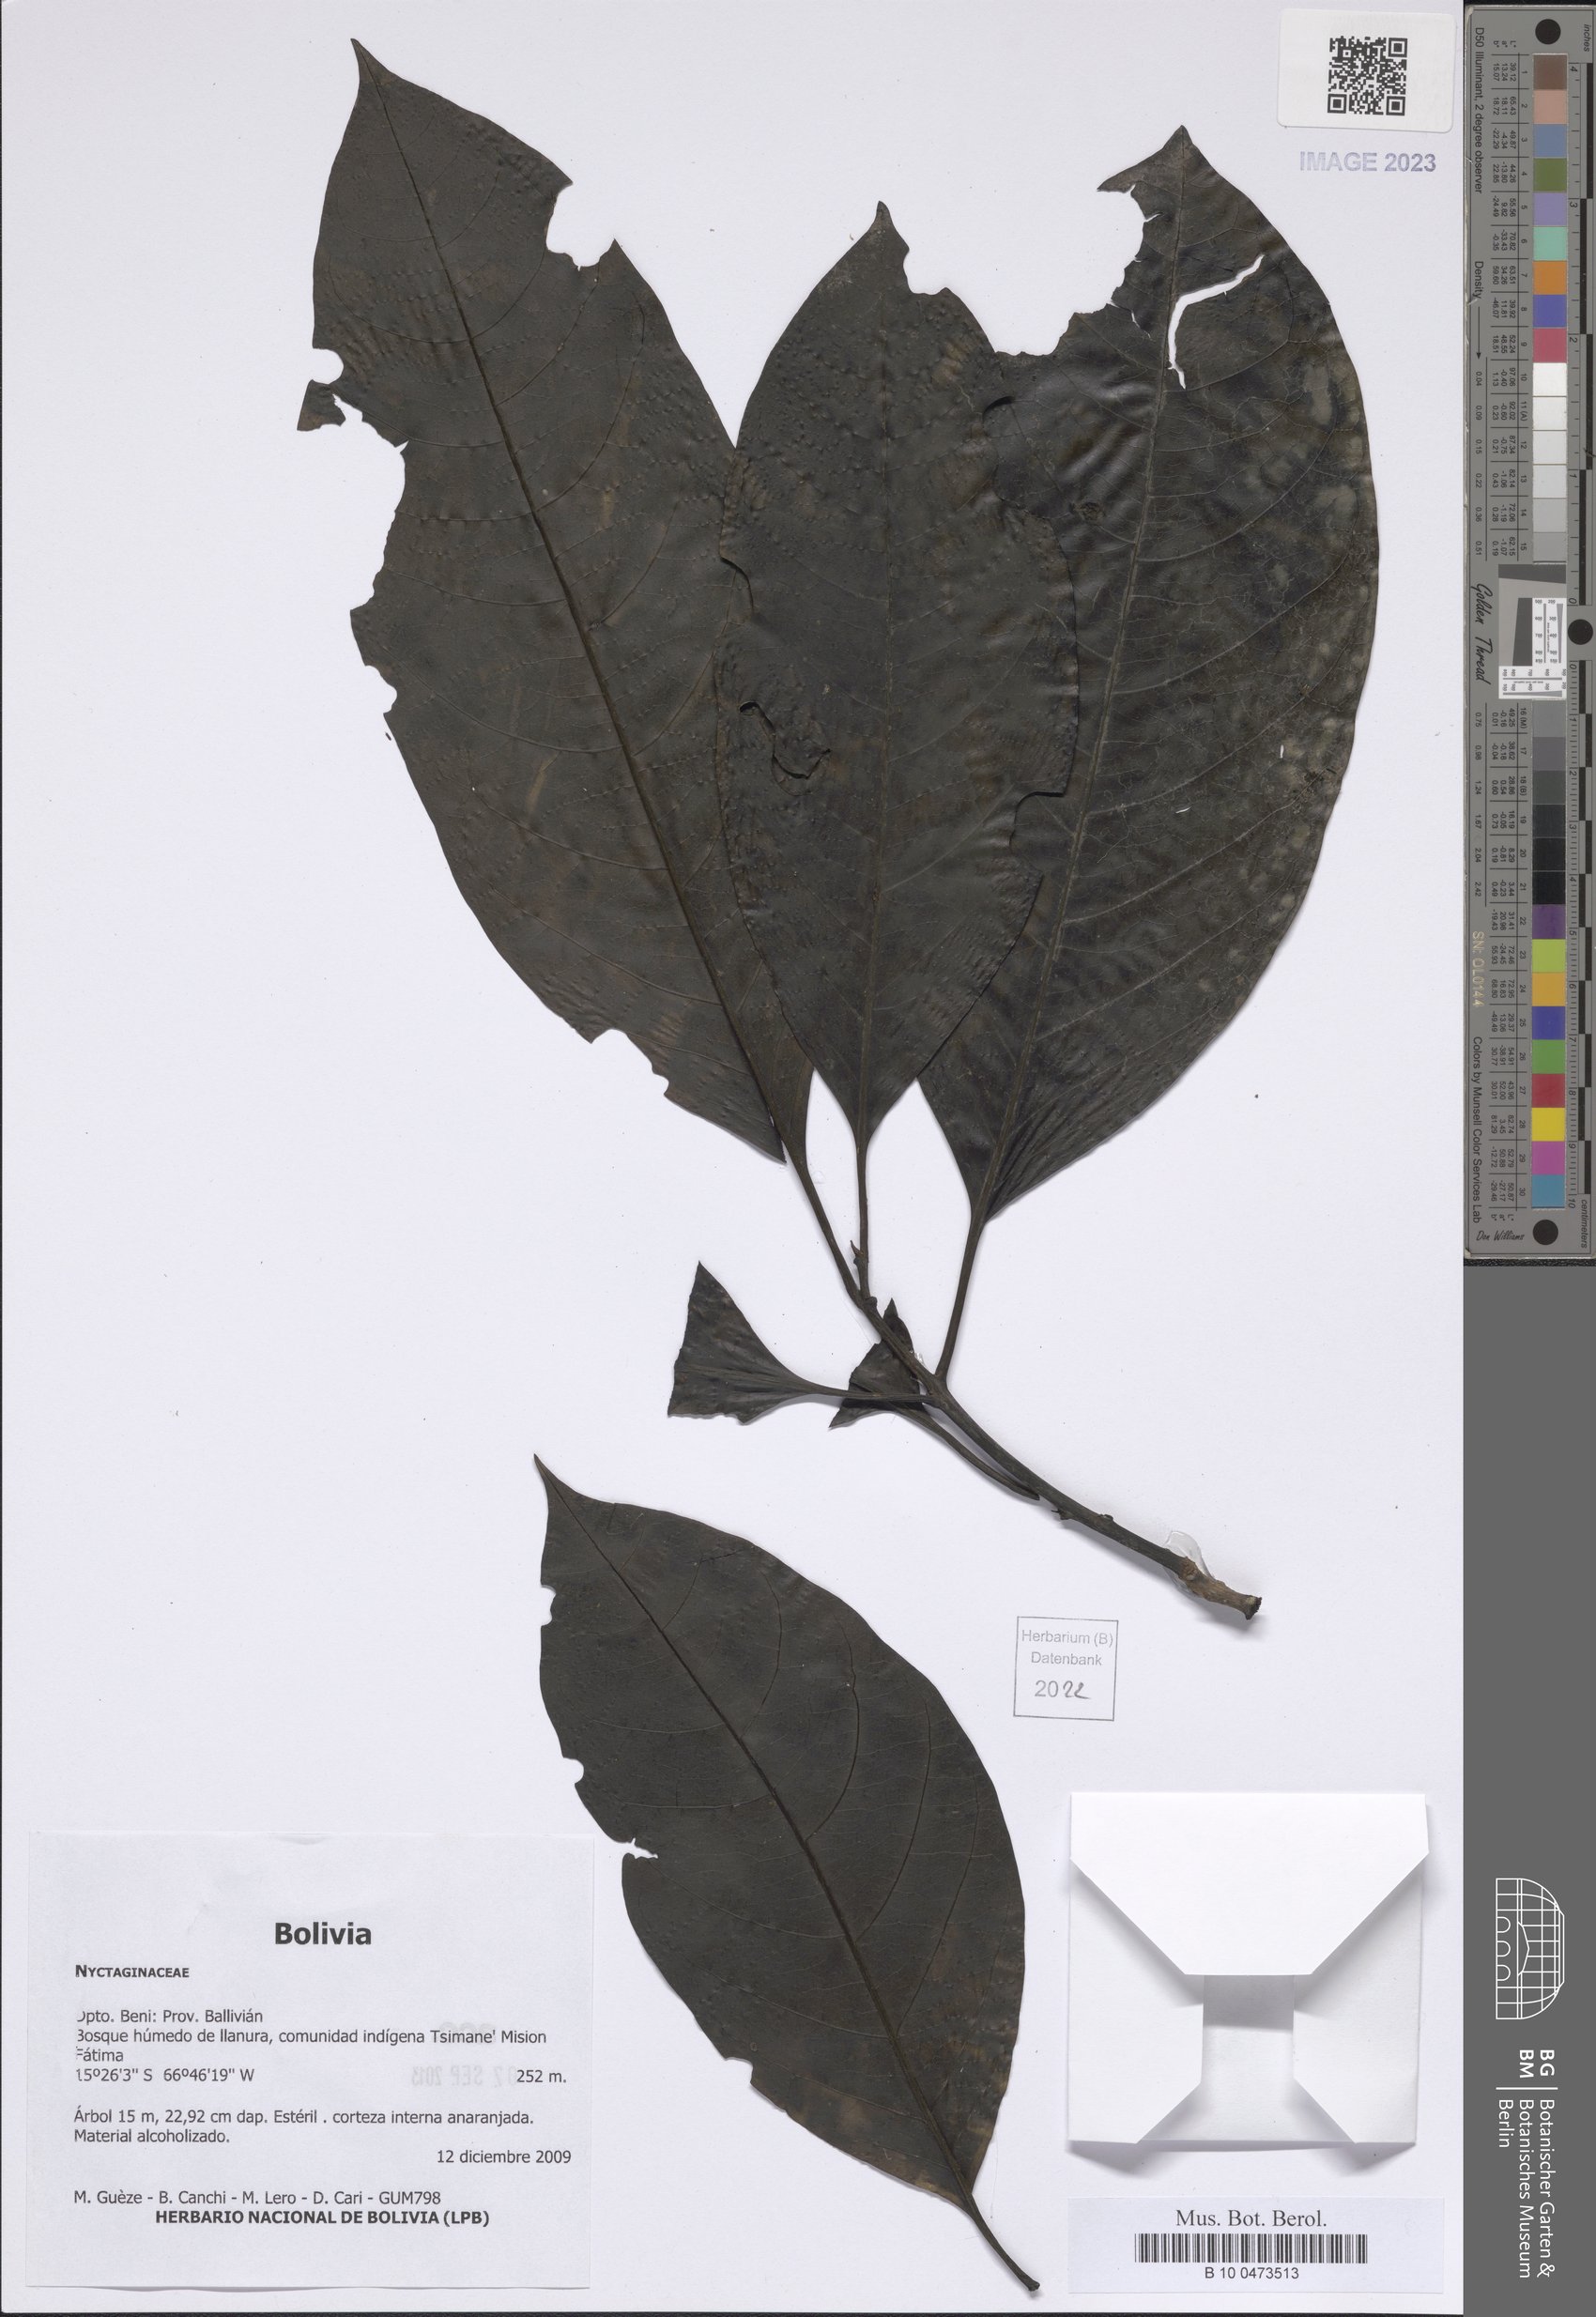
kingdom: Plantae
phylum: Tracheophyta
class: Magnoliopsida
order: Caryophyllales
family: Nyctaginaceae
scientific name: Nyctaginaceae
